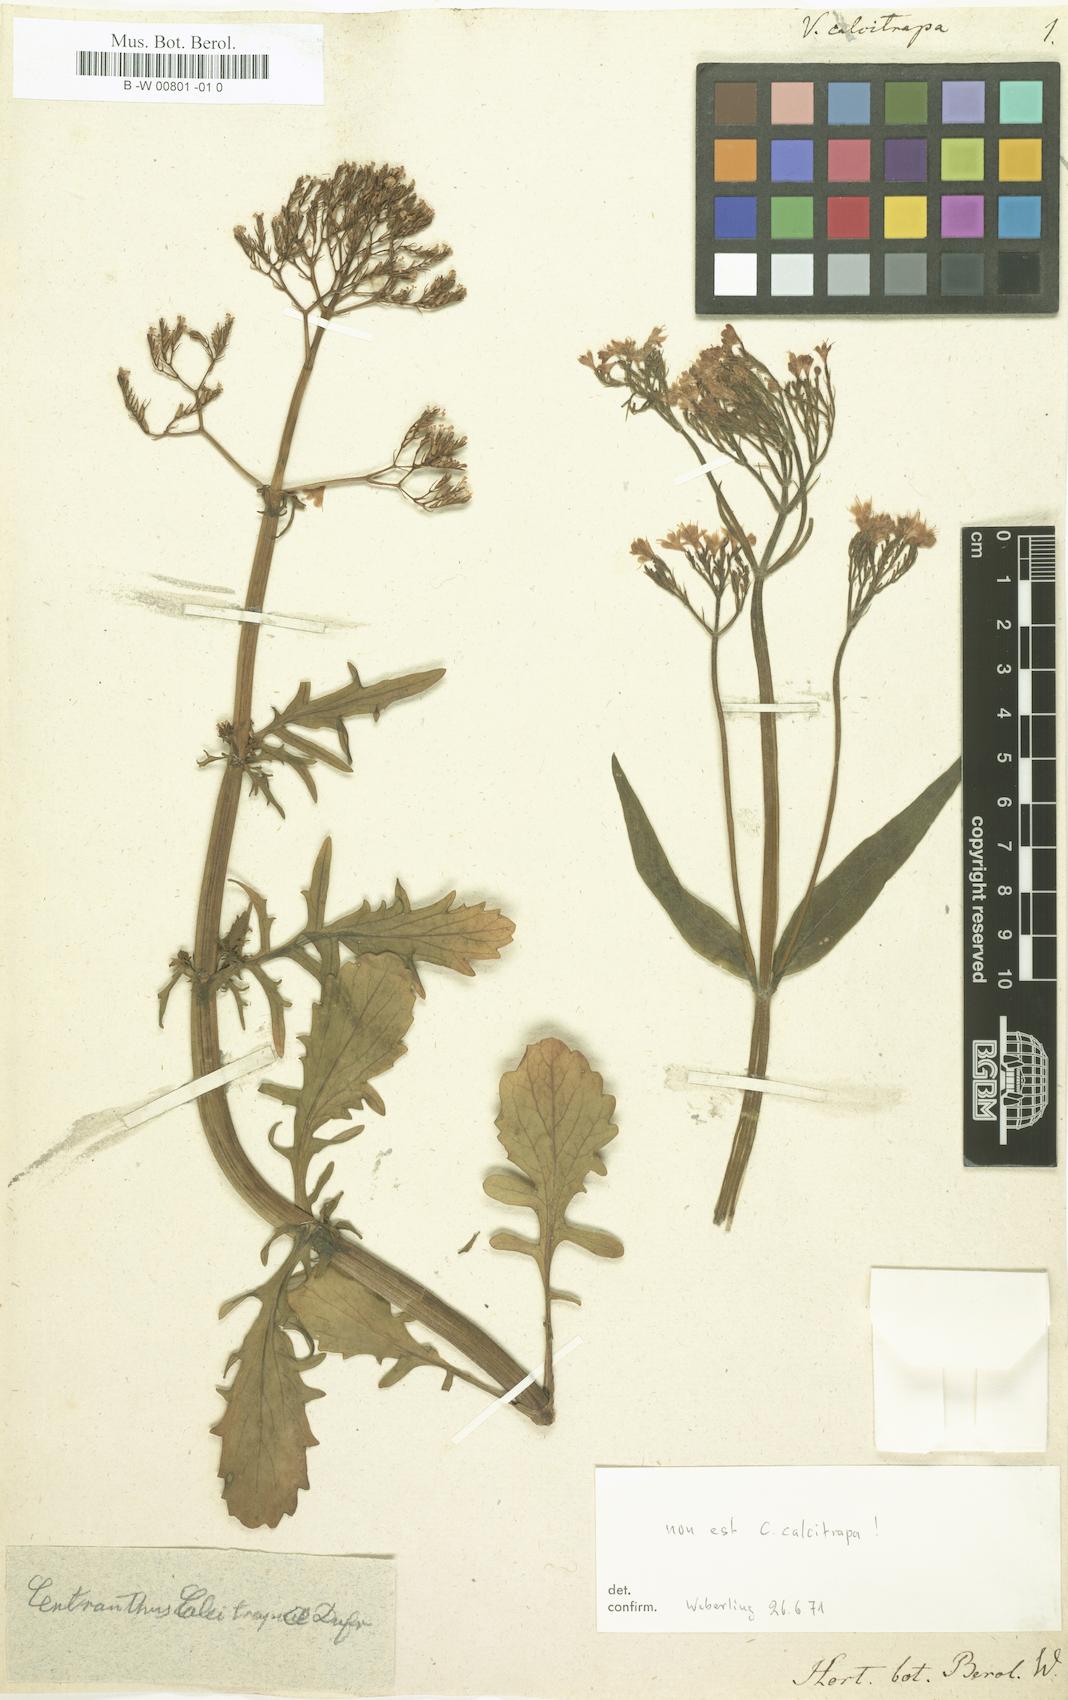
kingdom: Plantae
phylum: Tracheophyta
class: Magnoliopsida
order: Dipsacales
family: Caprifoliaceae
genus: Centranthus
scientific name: Centranthus calcitrapae
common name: Annual valerian
